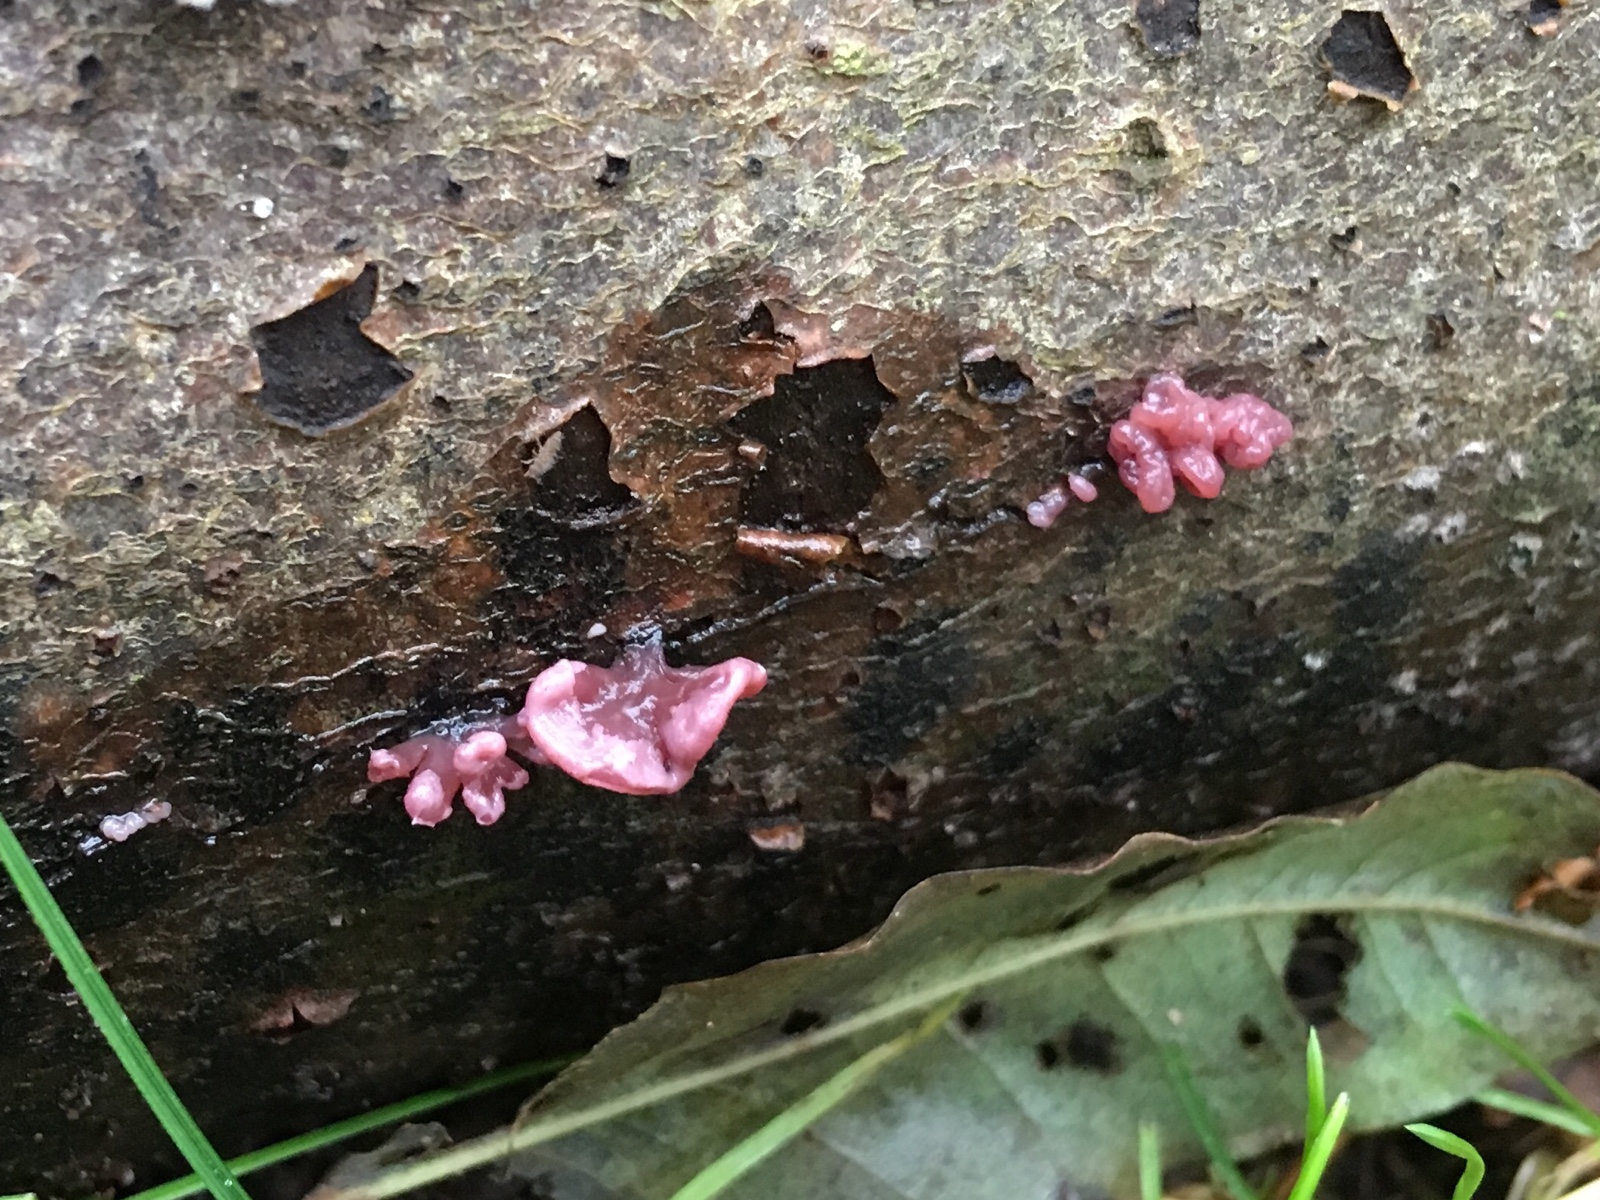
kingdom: Fungi
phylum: Ascomycota
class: Leotiomycetes
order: Helotiales
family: Gelatinodiscaceae
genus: Ascocoryne
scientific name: Ascocoryne sarcoides
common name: rødlilla sejskive
